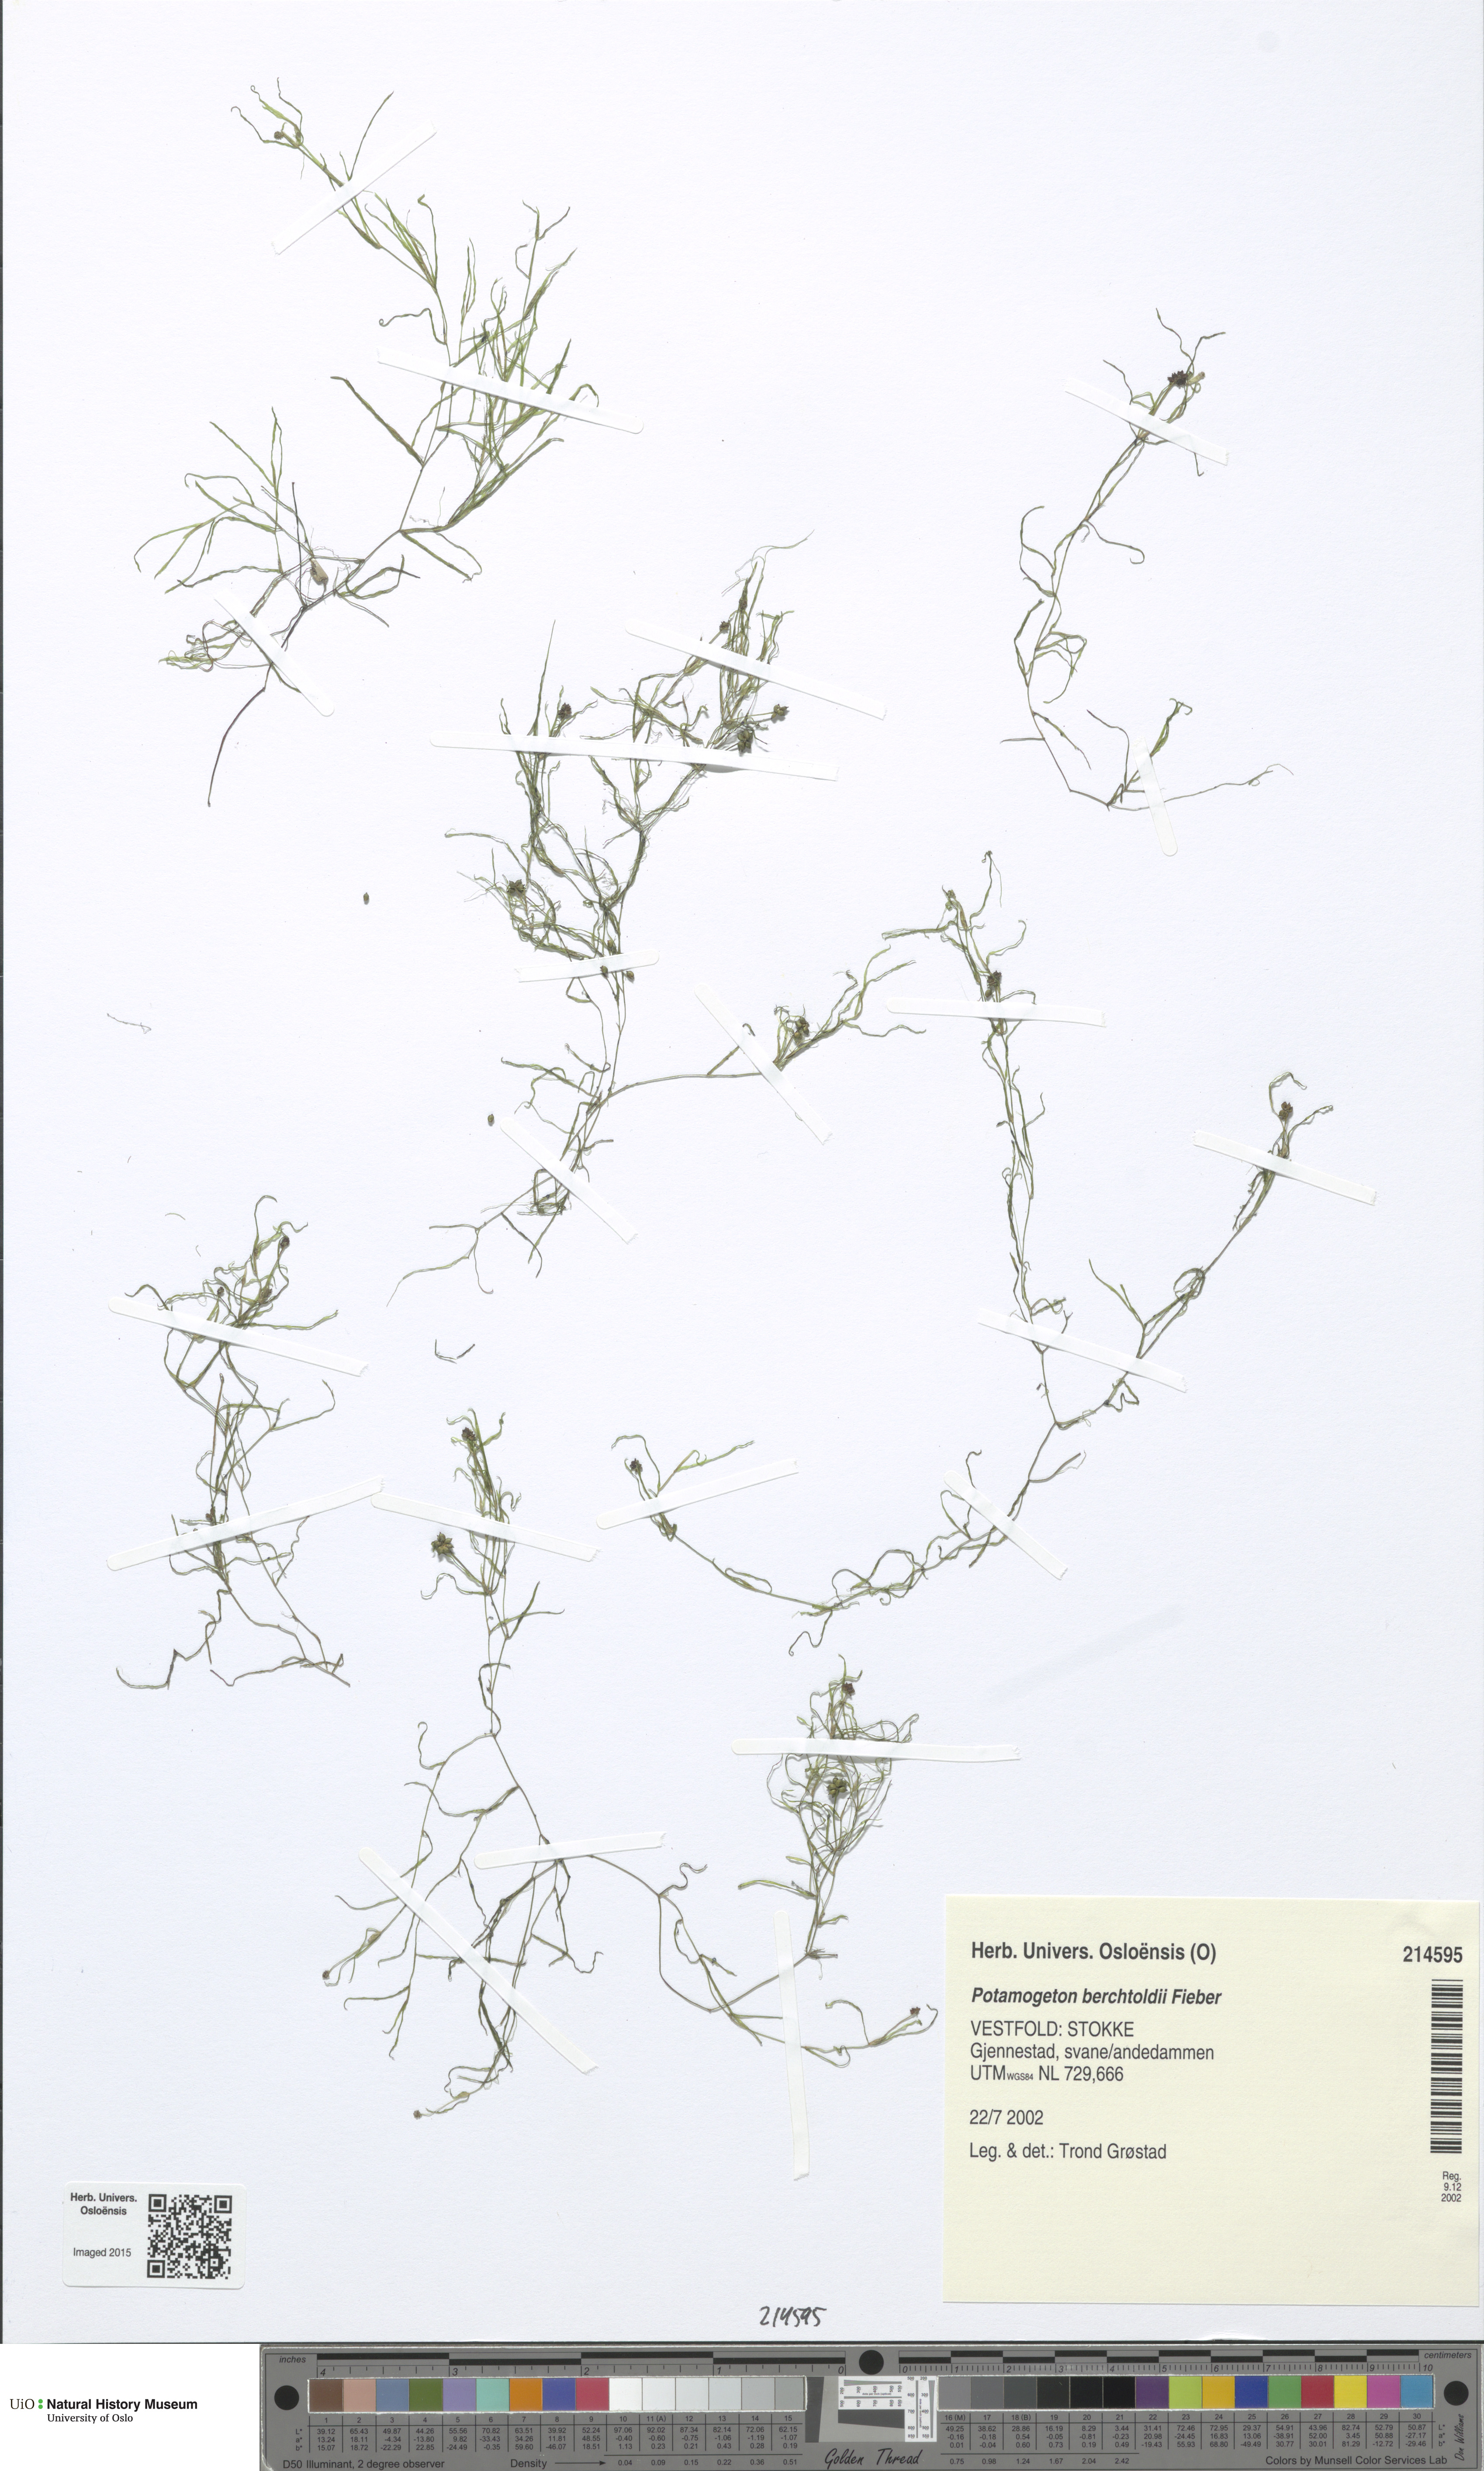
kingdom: Plantae
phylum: Tracheophyta
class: Liliopsida
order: Alismatales
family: Potamogetonaceae
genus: Potamogeton
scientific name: Potamogeton berchtoldii
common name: Small pondweed
